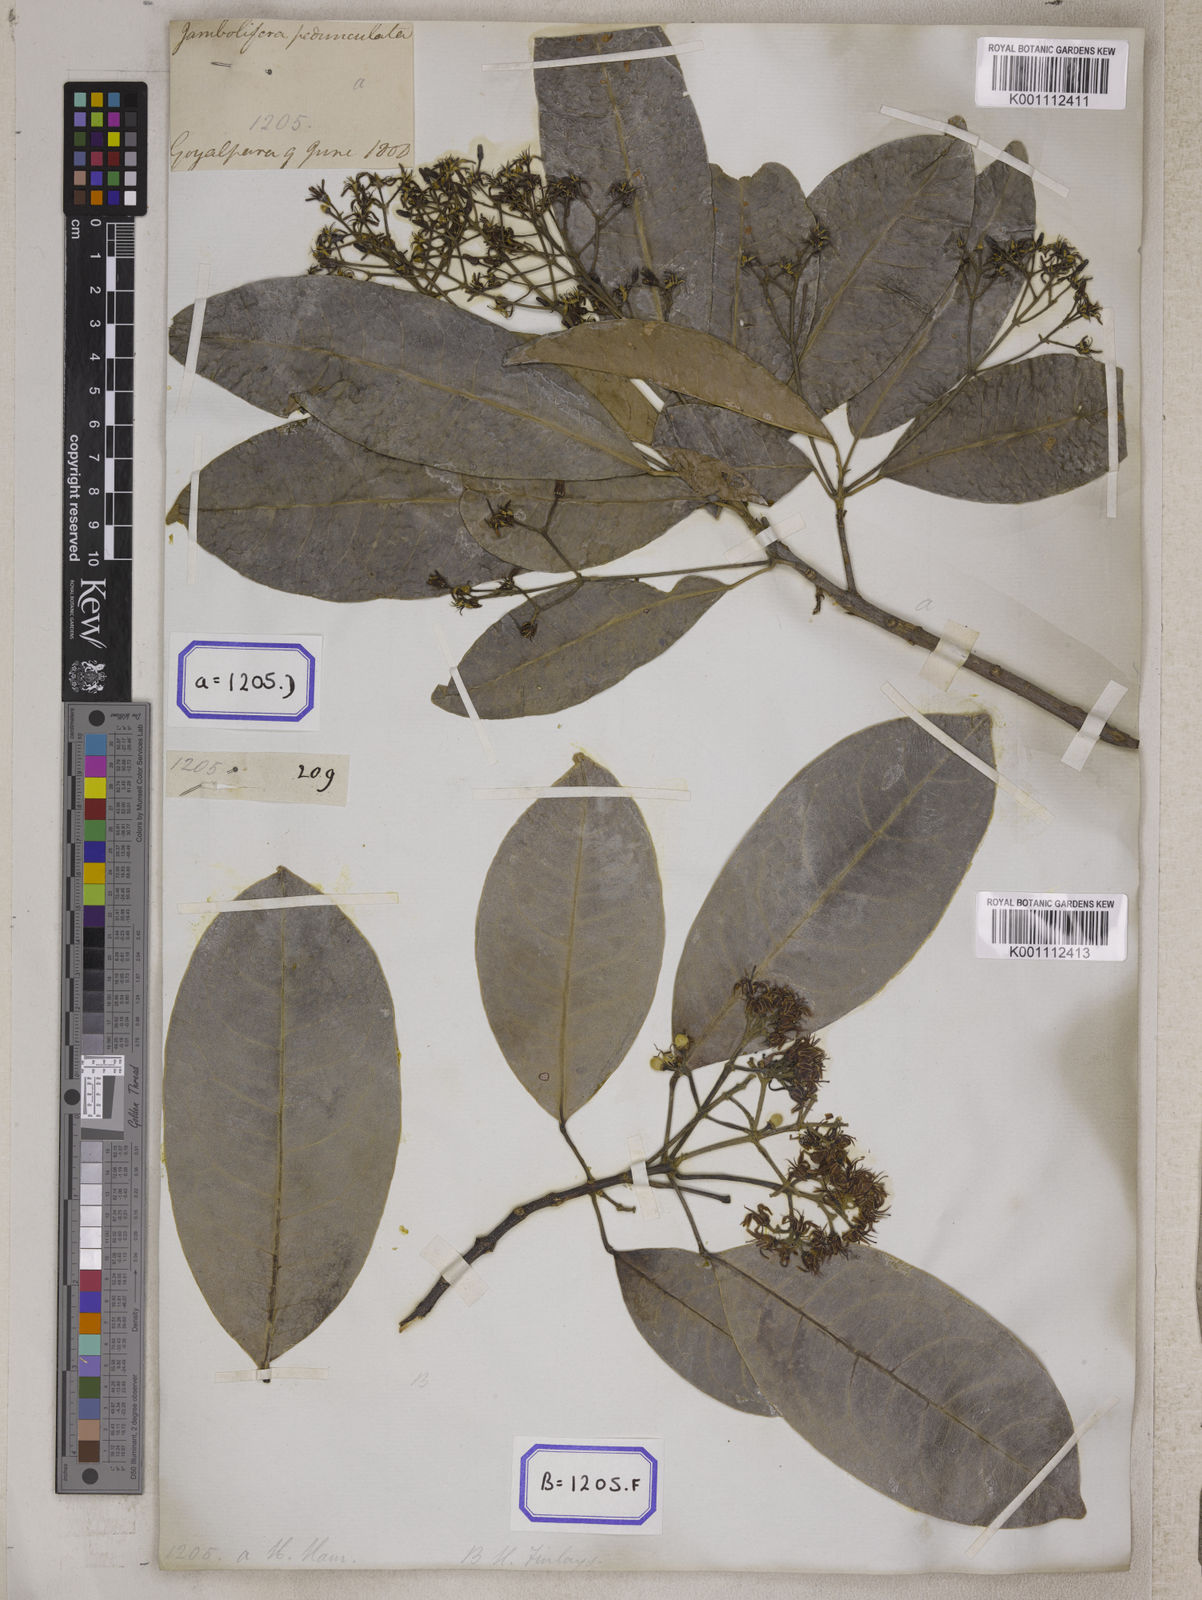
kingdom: Plantae
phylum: Tracheophyta
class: Magnoliopsida
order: Sapindales
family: Rutaceae
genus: Acronychia
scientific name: Acronychia
